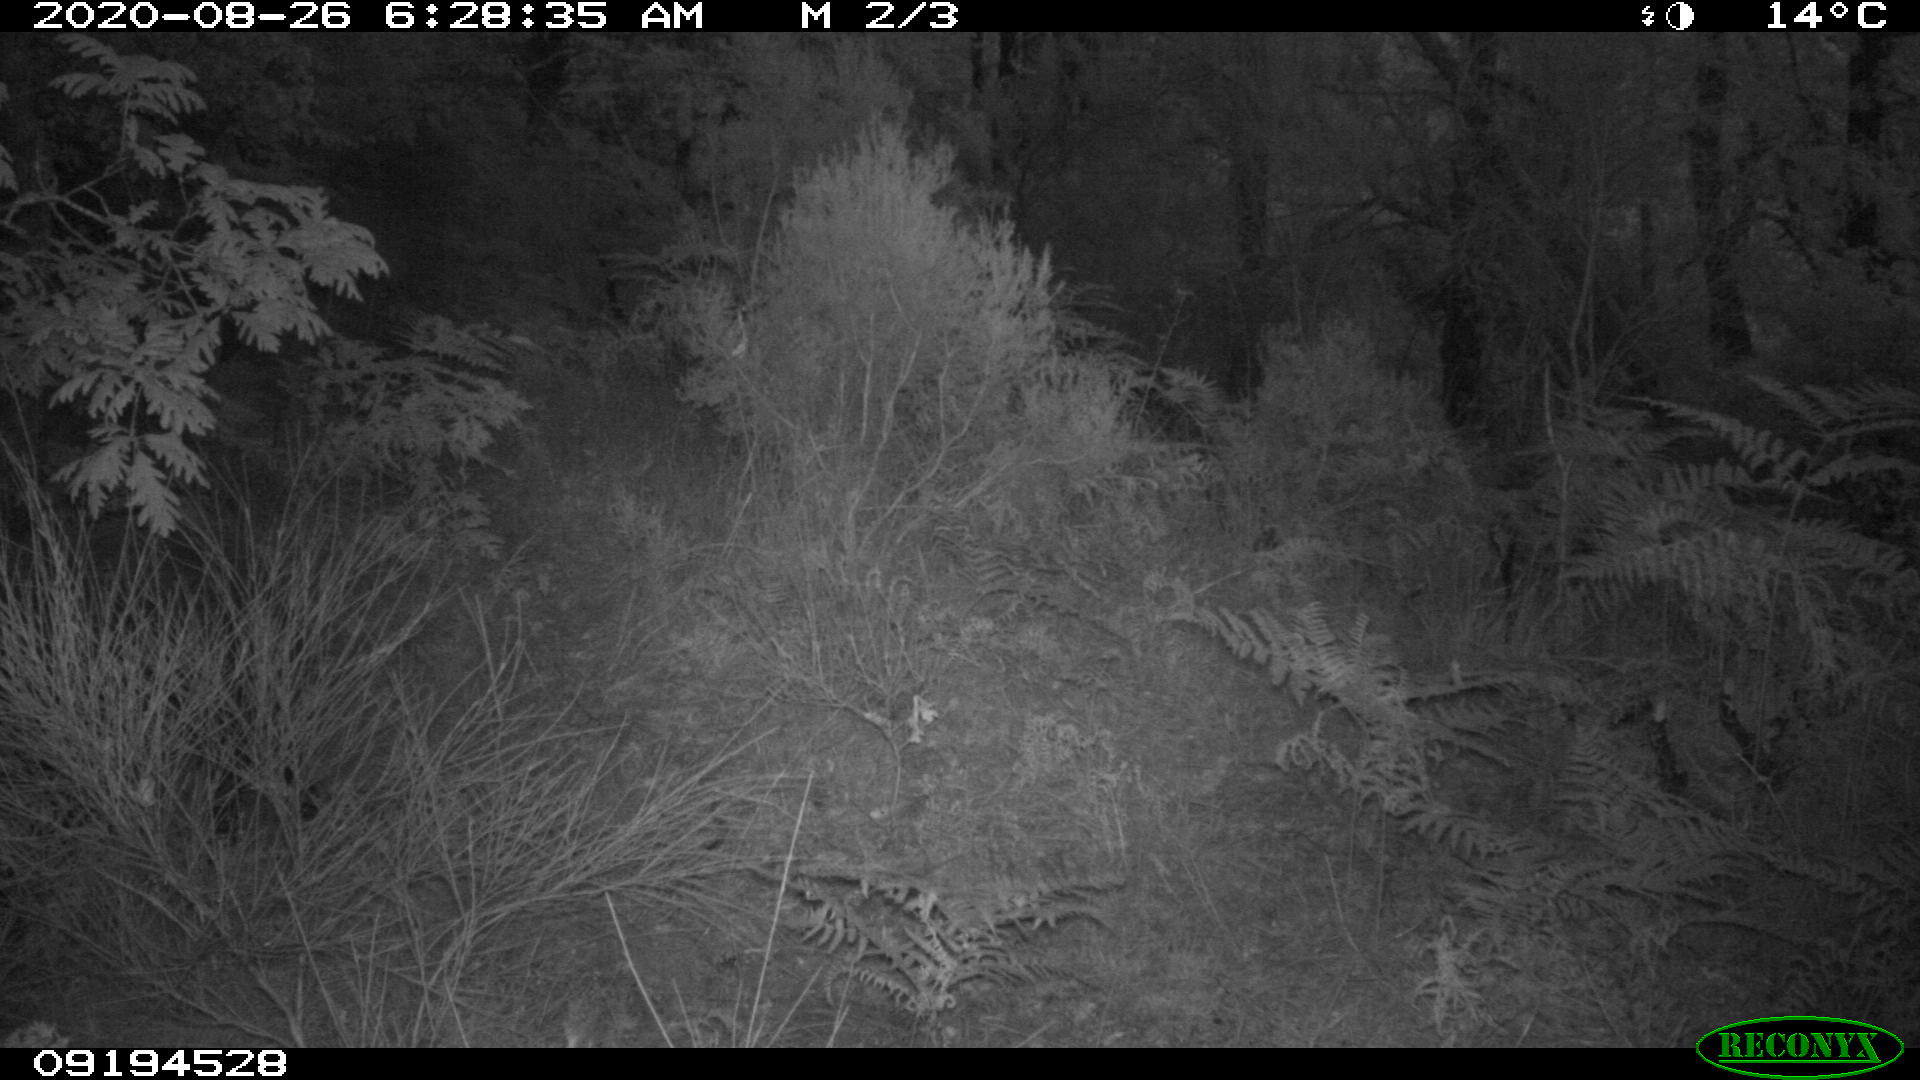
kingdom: Animalia
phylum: Chordata
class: Mammalia
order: Artiodactyla
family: Suidae
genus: Sus
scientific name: Sus scrofa
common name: Wild boar
